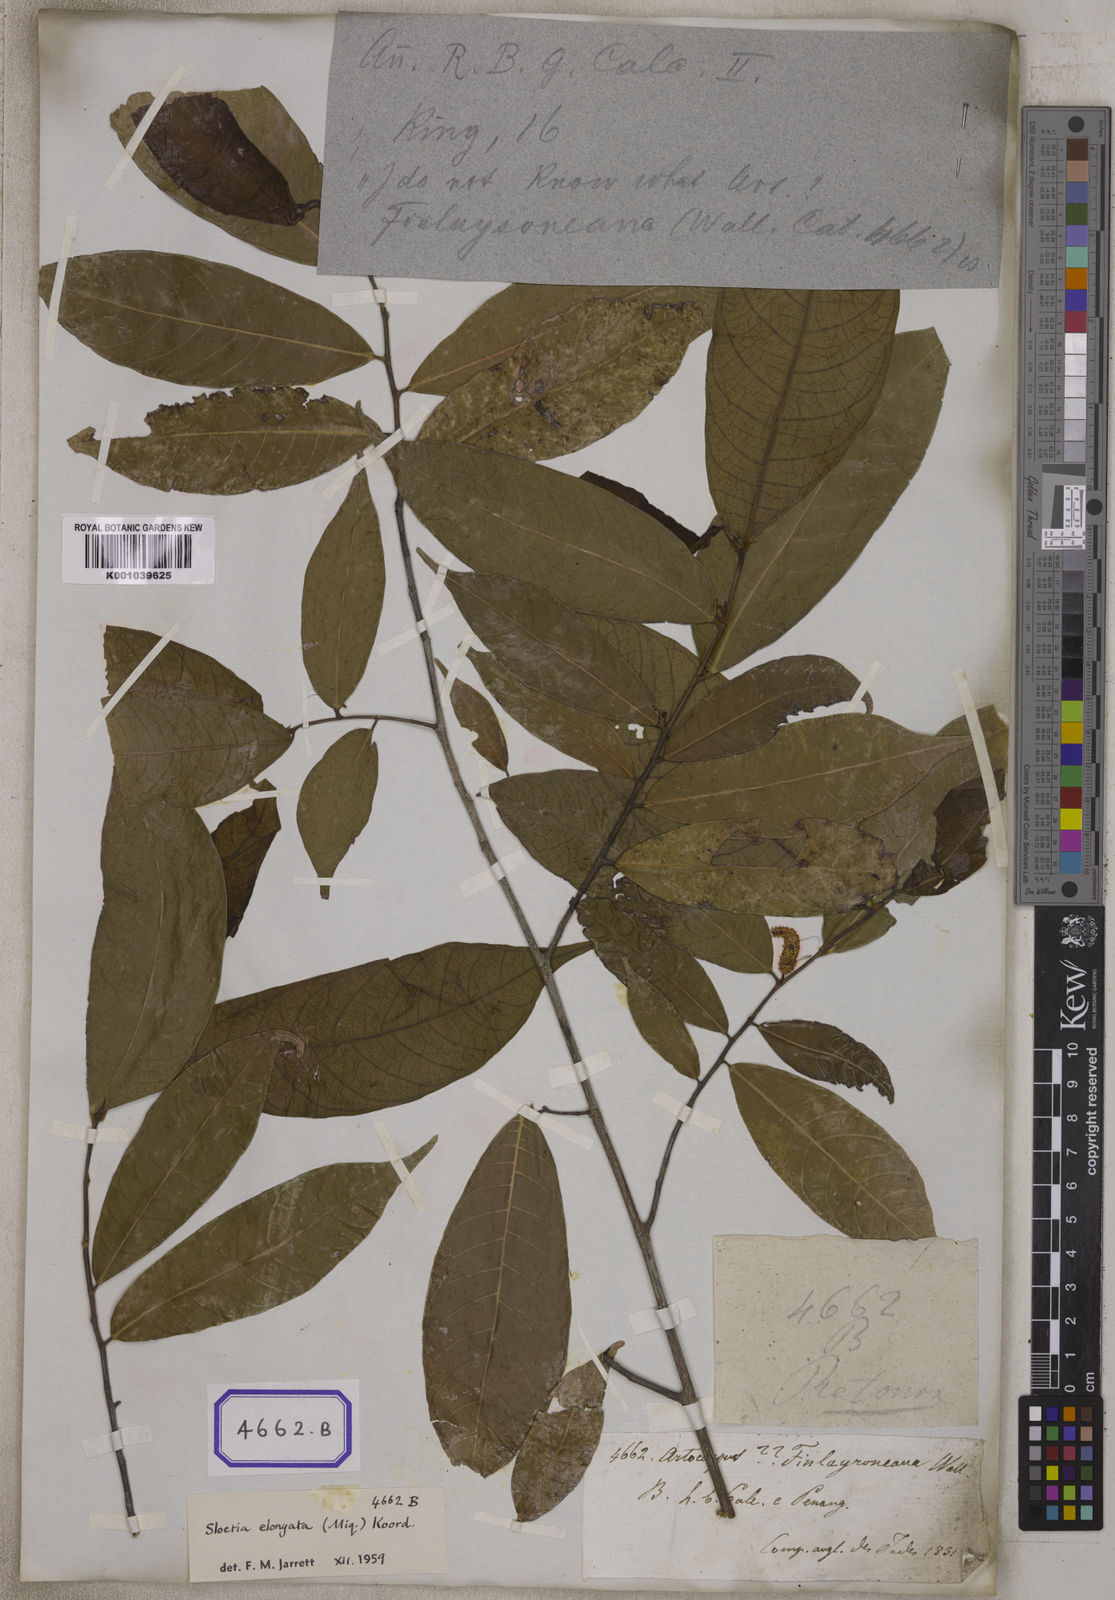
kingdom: Plantae
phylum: Tracheophyta
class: Magnoliopsida
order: Rosales
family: Moraceae
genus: Sloetia
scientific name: Sloetia elongata
